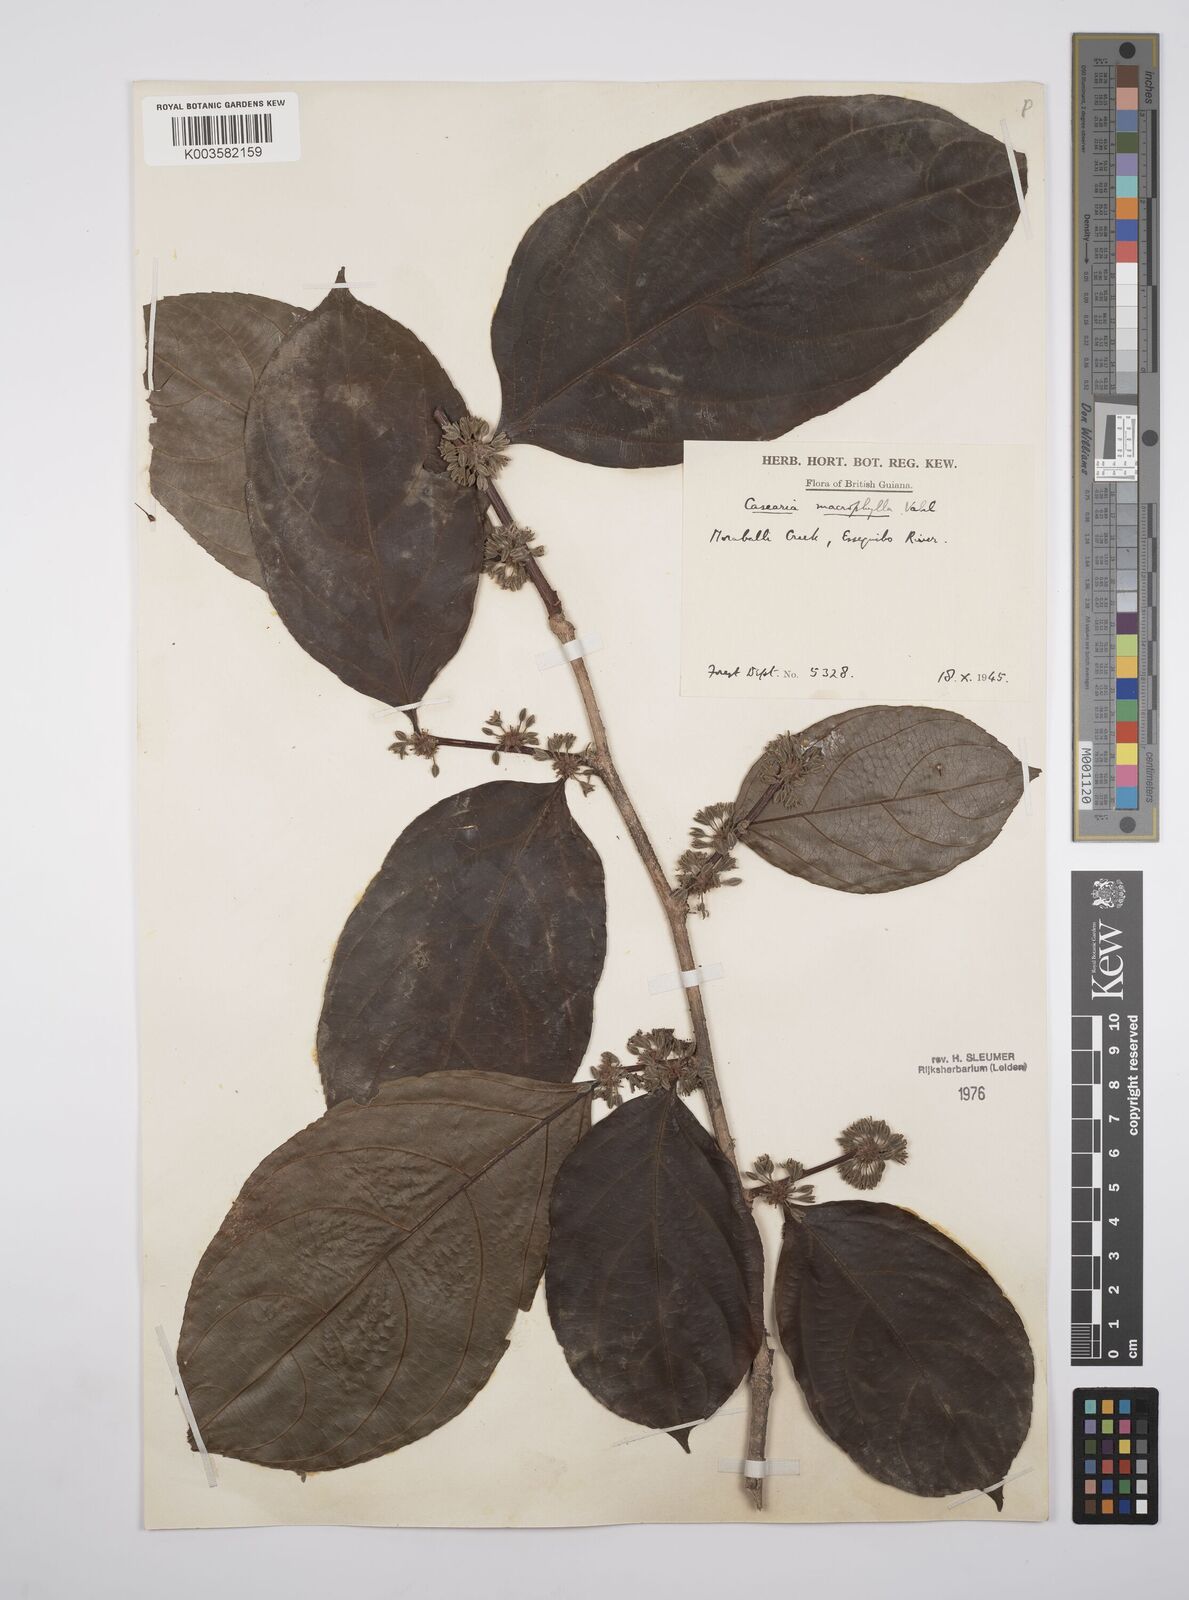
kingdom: Plantae
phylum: Tracheophyta
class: Magnoliopsida
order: Malpighiales
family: Salicaceae
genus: Casearia
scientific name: Casearia pitumba
